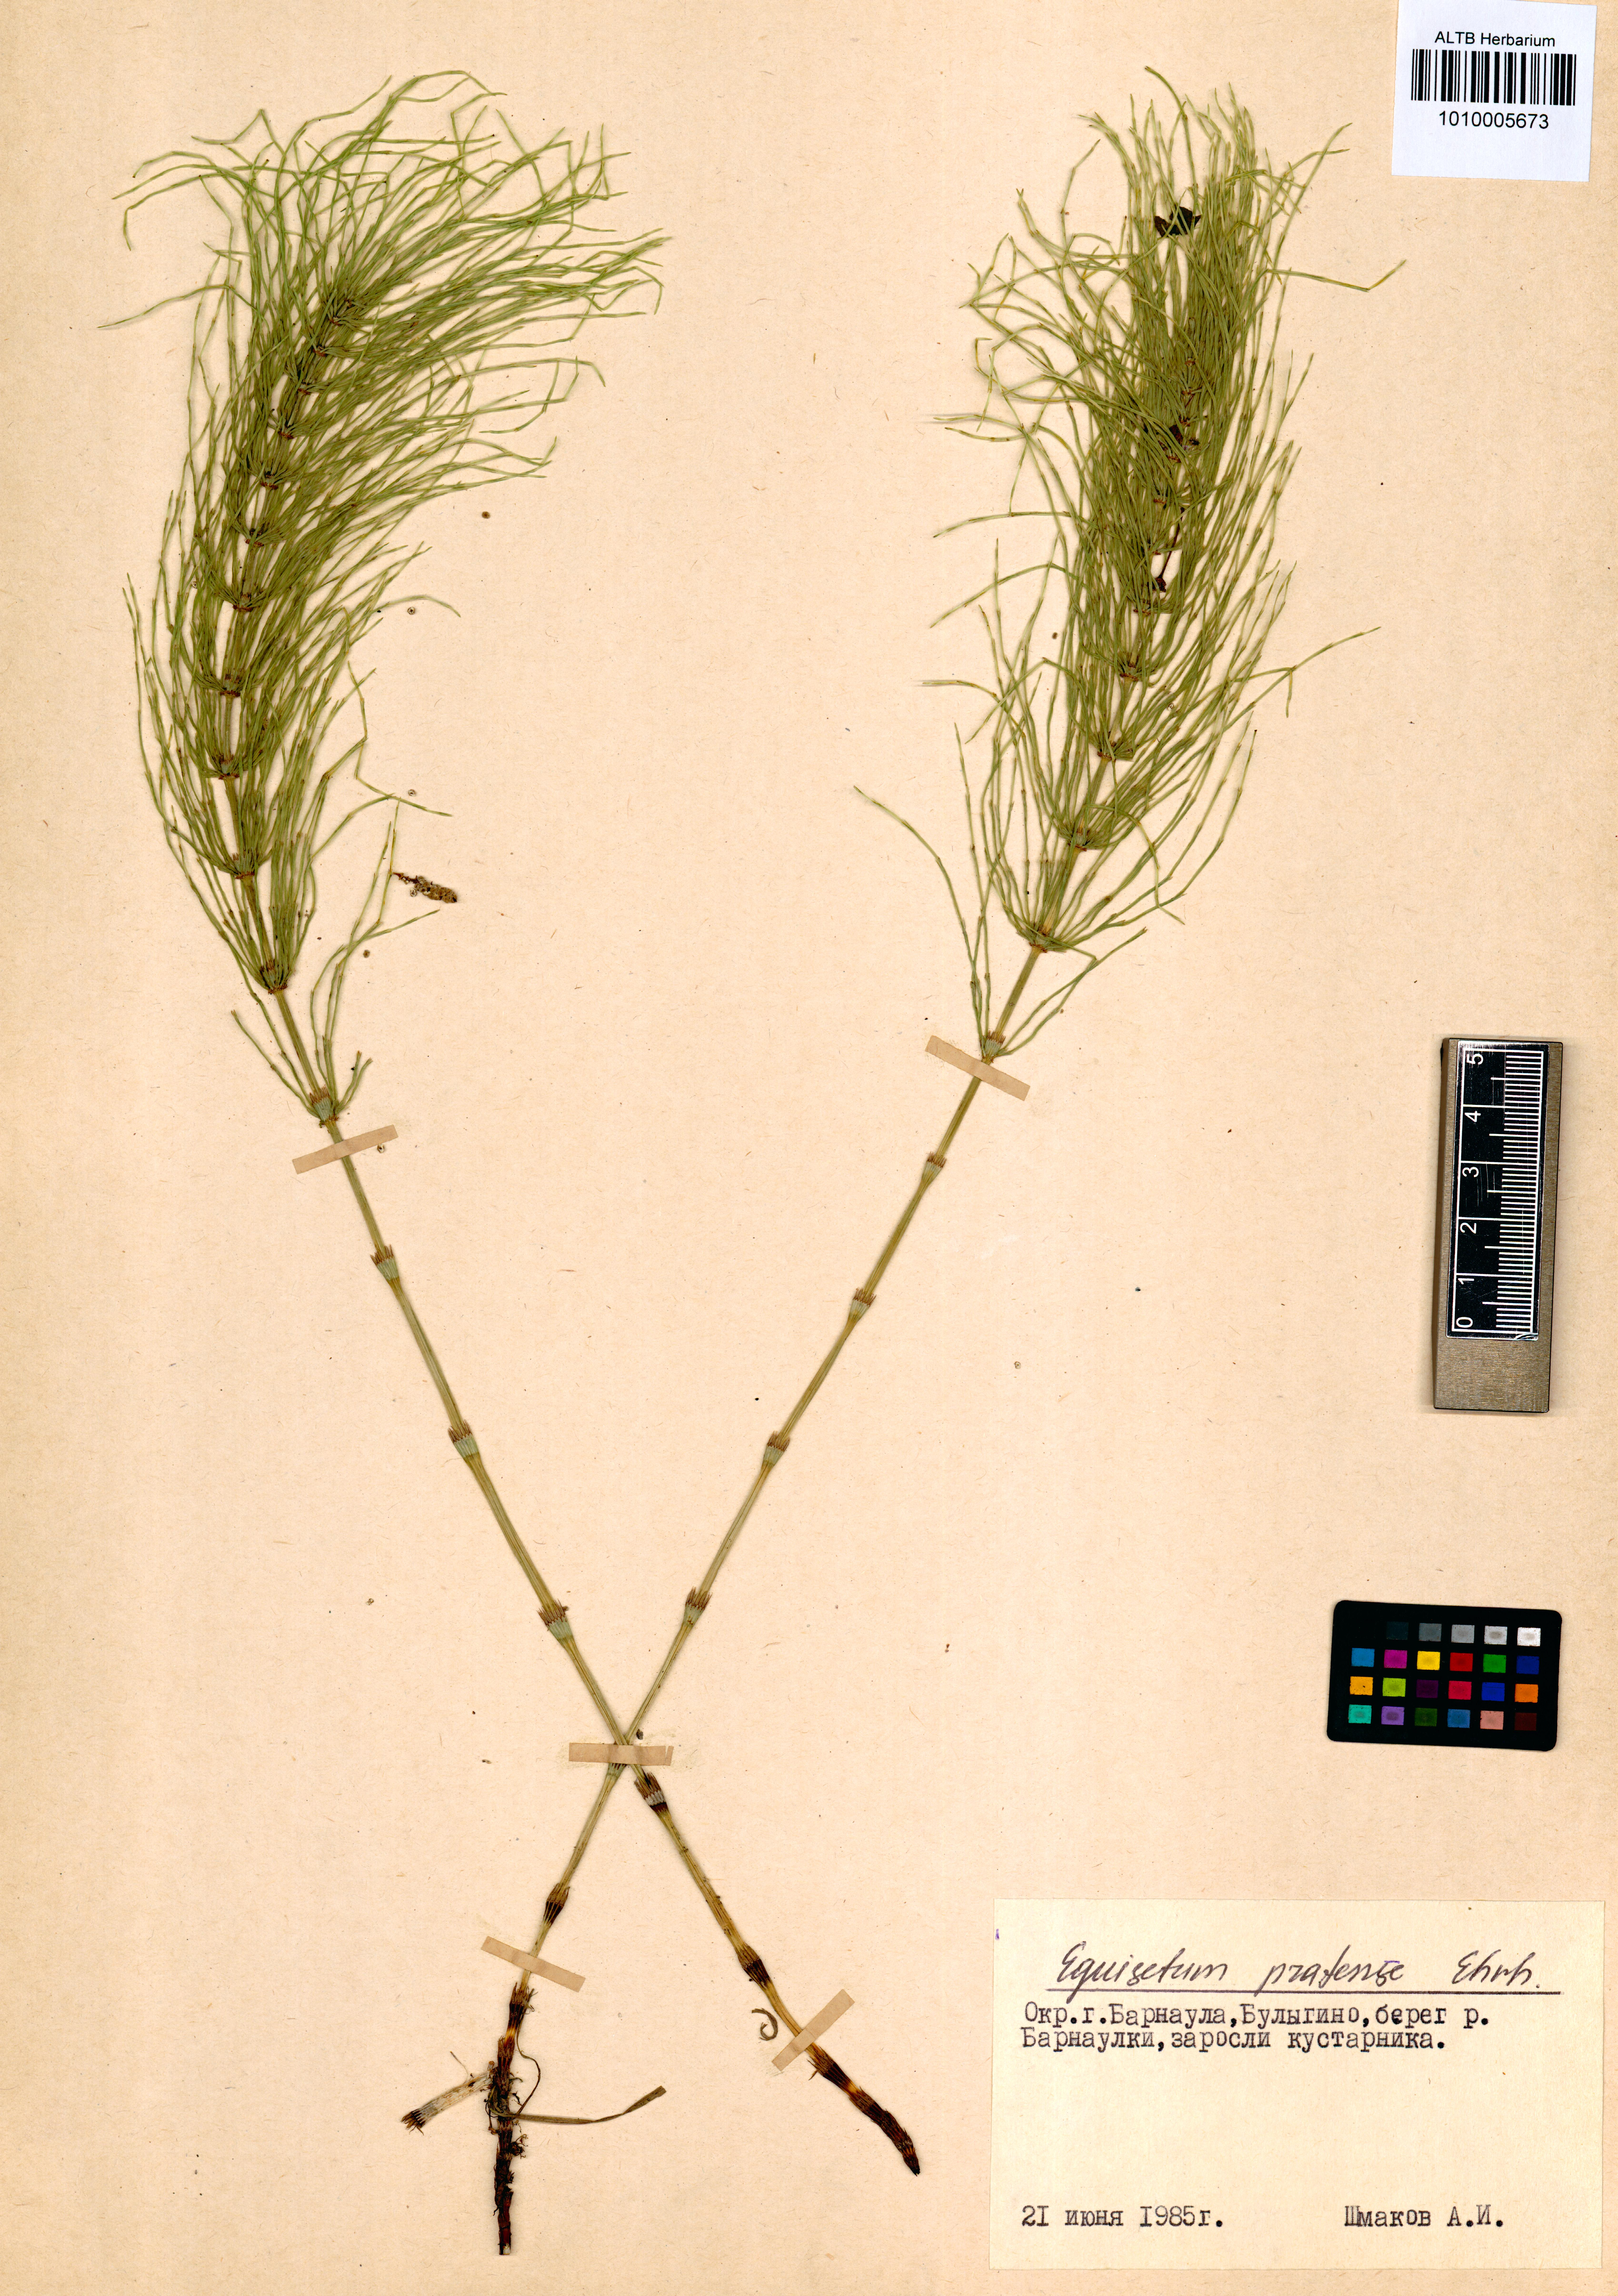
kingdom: Plantae
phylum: Tracheophyta
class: Polypodiopsida
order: Equisetales
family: Equisetaceae
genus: Equisetum
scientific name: Equisetum pratense
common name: Meadow horsetail
